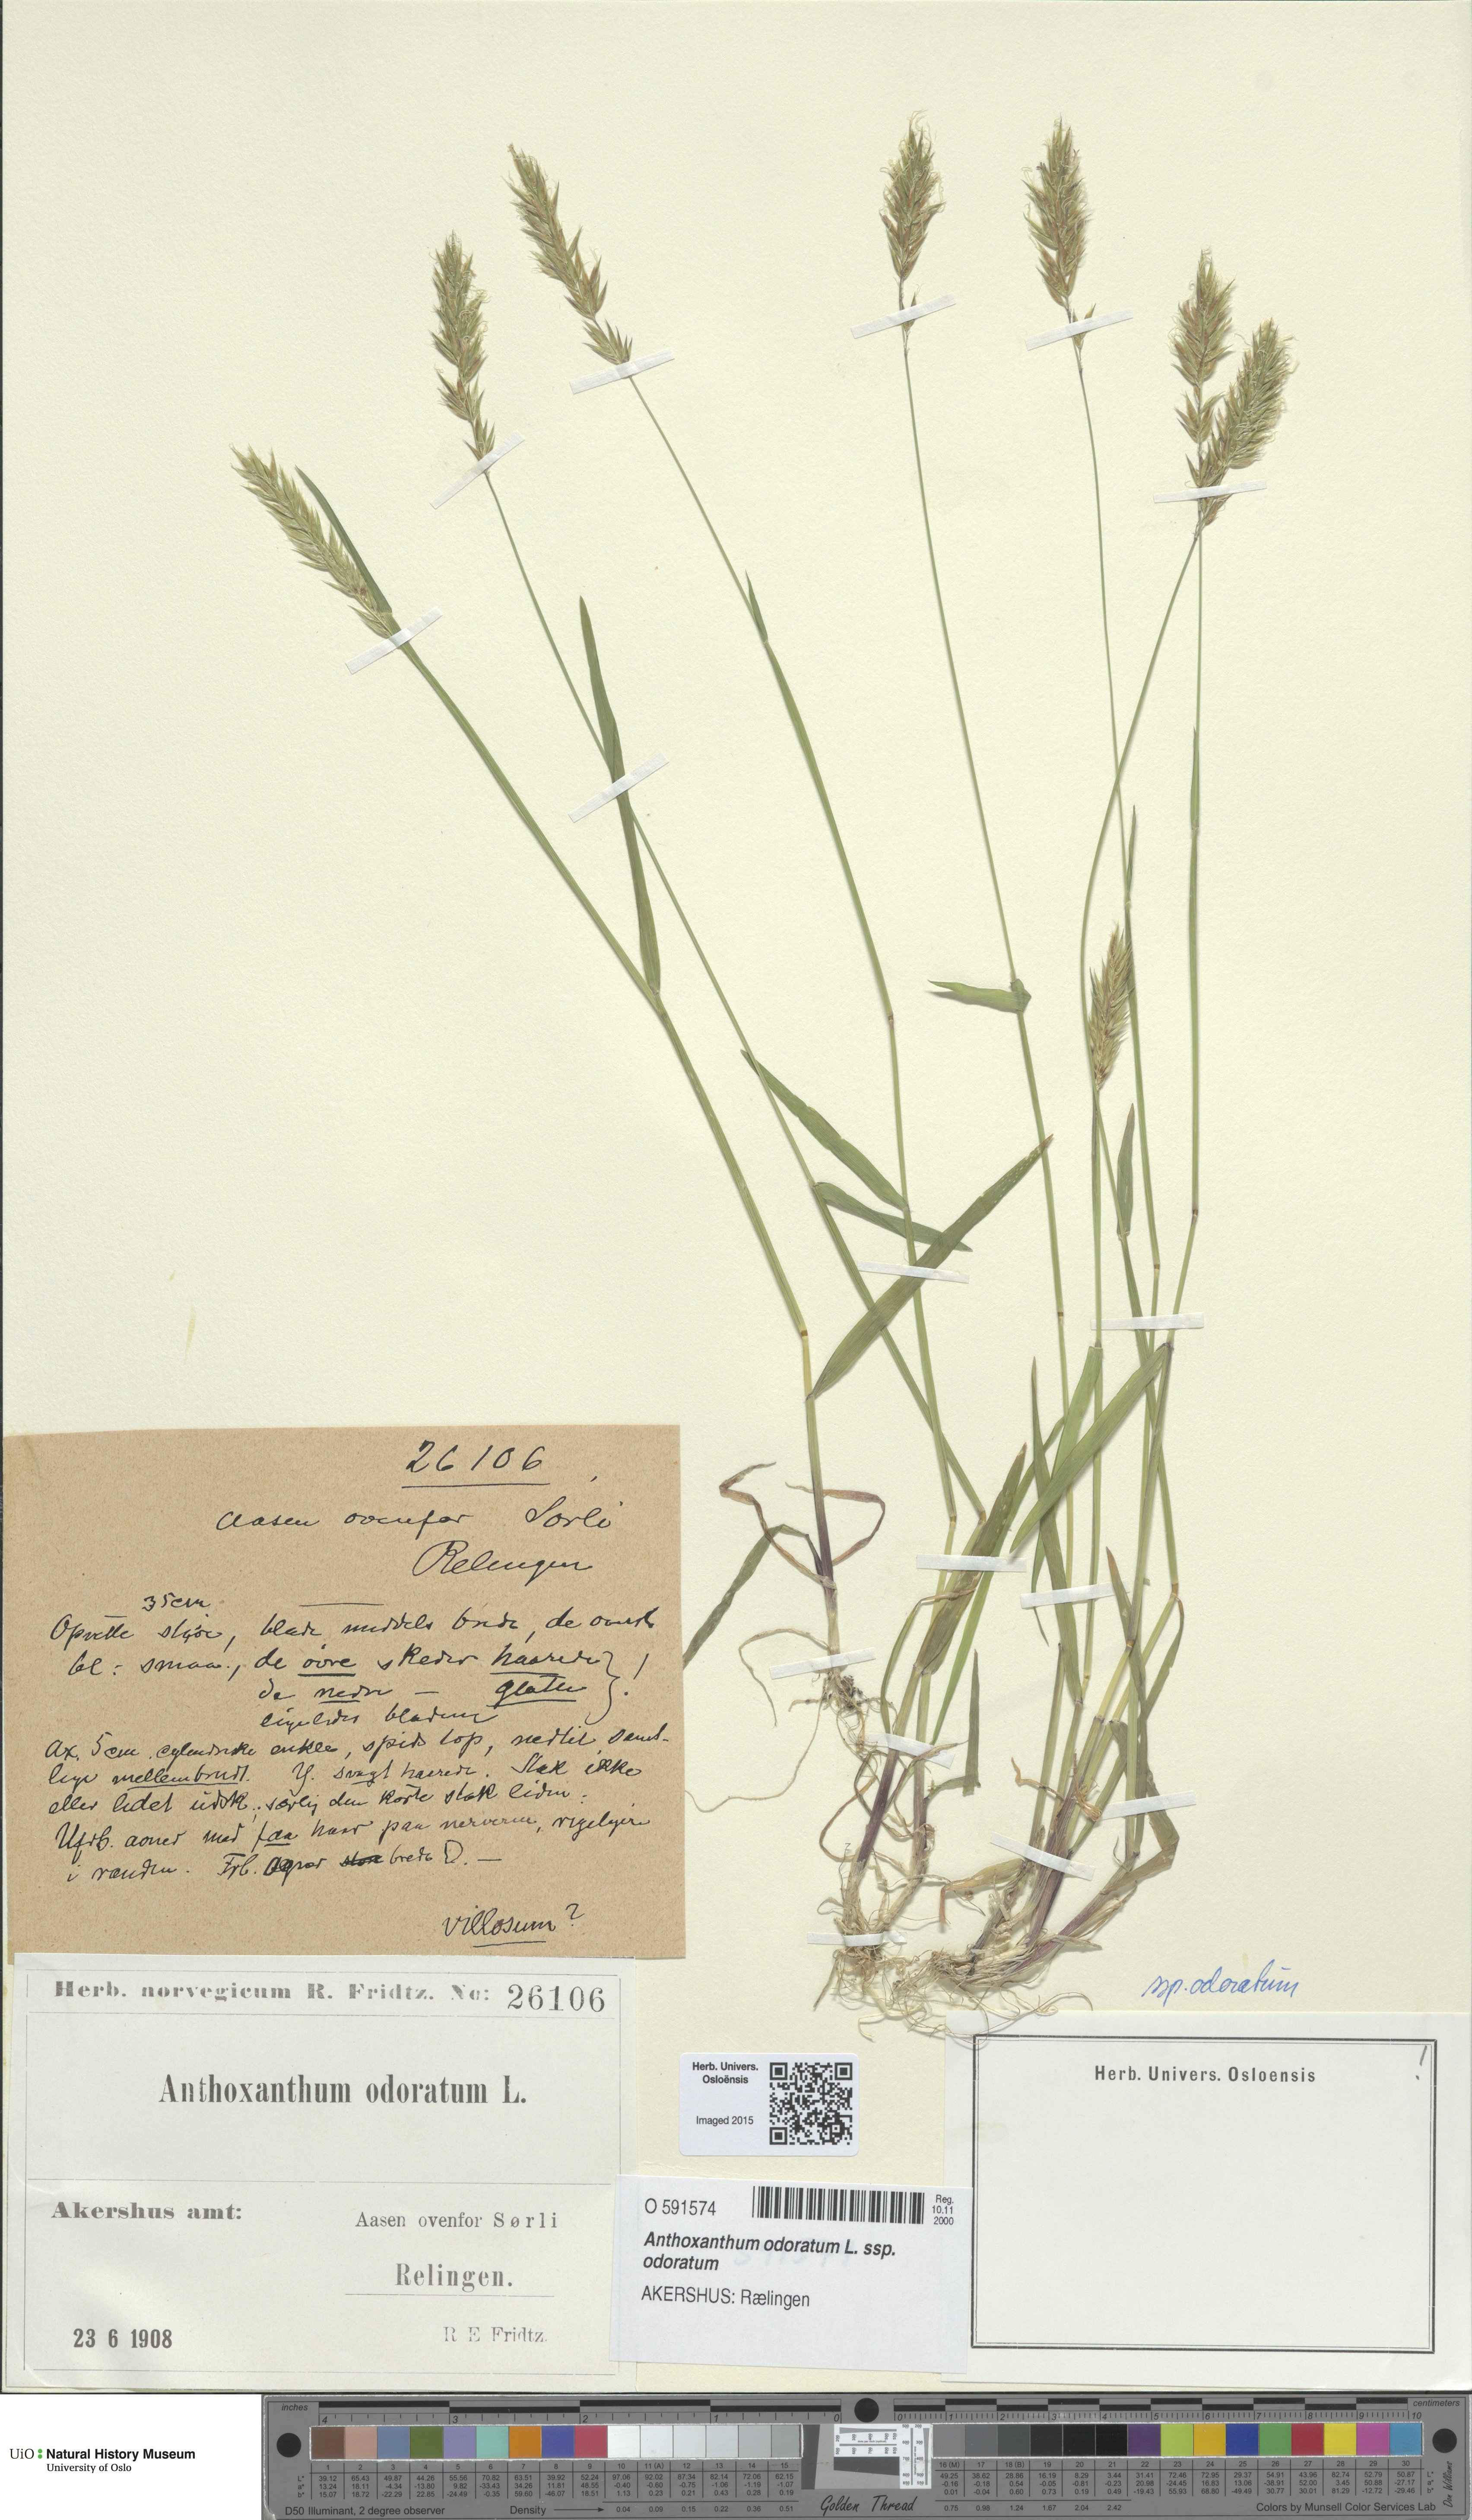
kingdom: Plantae
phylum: Tracheophyta
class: Liliopsida
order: Poales
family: Poaceae
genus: Anthoxanthum
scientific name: Anthoxanthum odoratum
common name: Sweet vernalgrass
